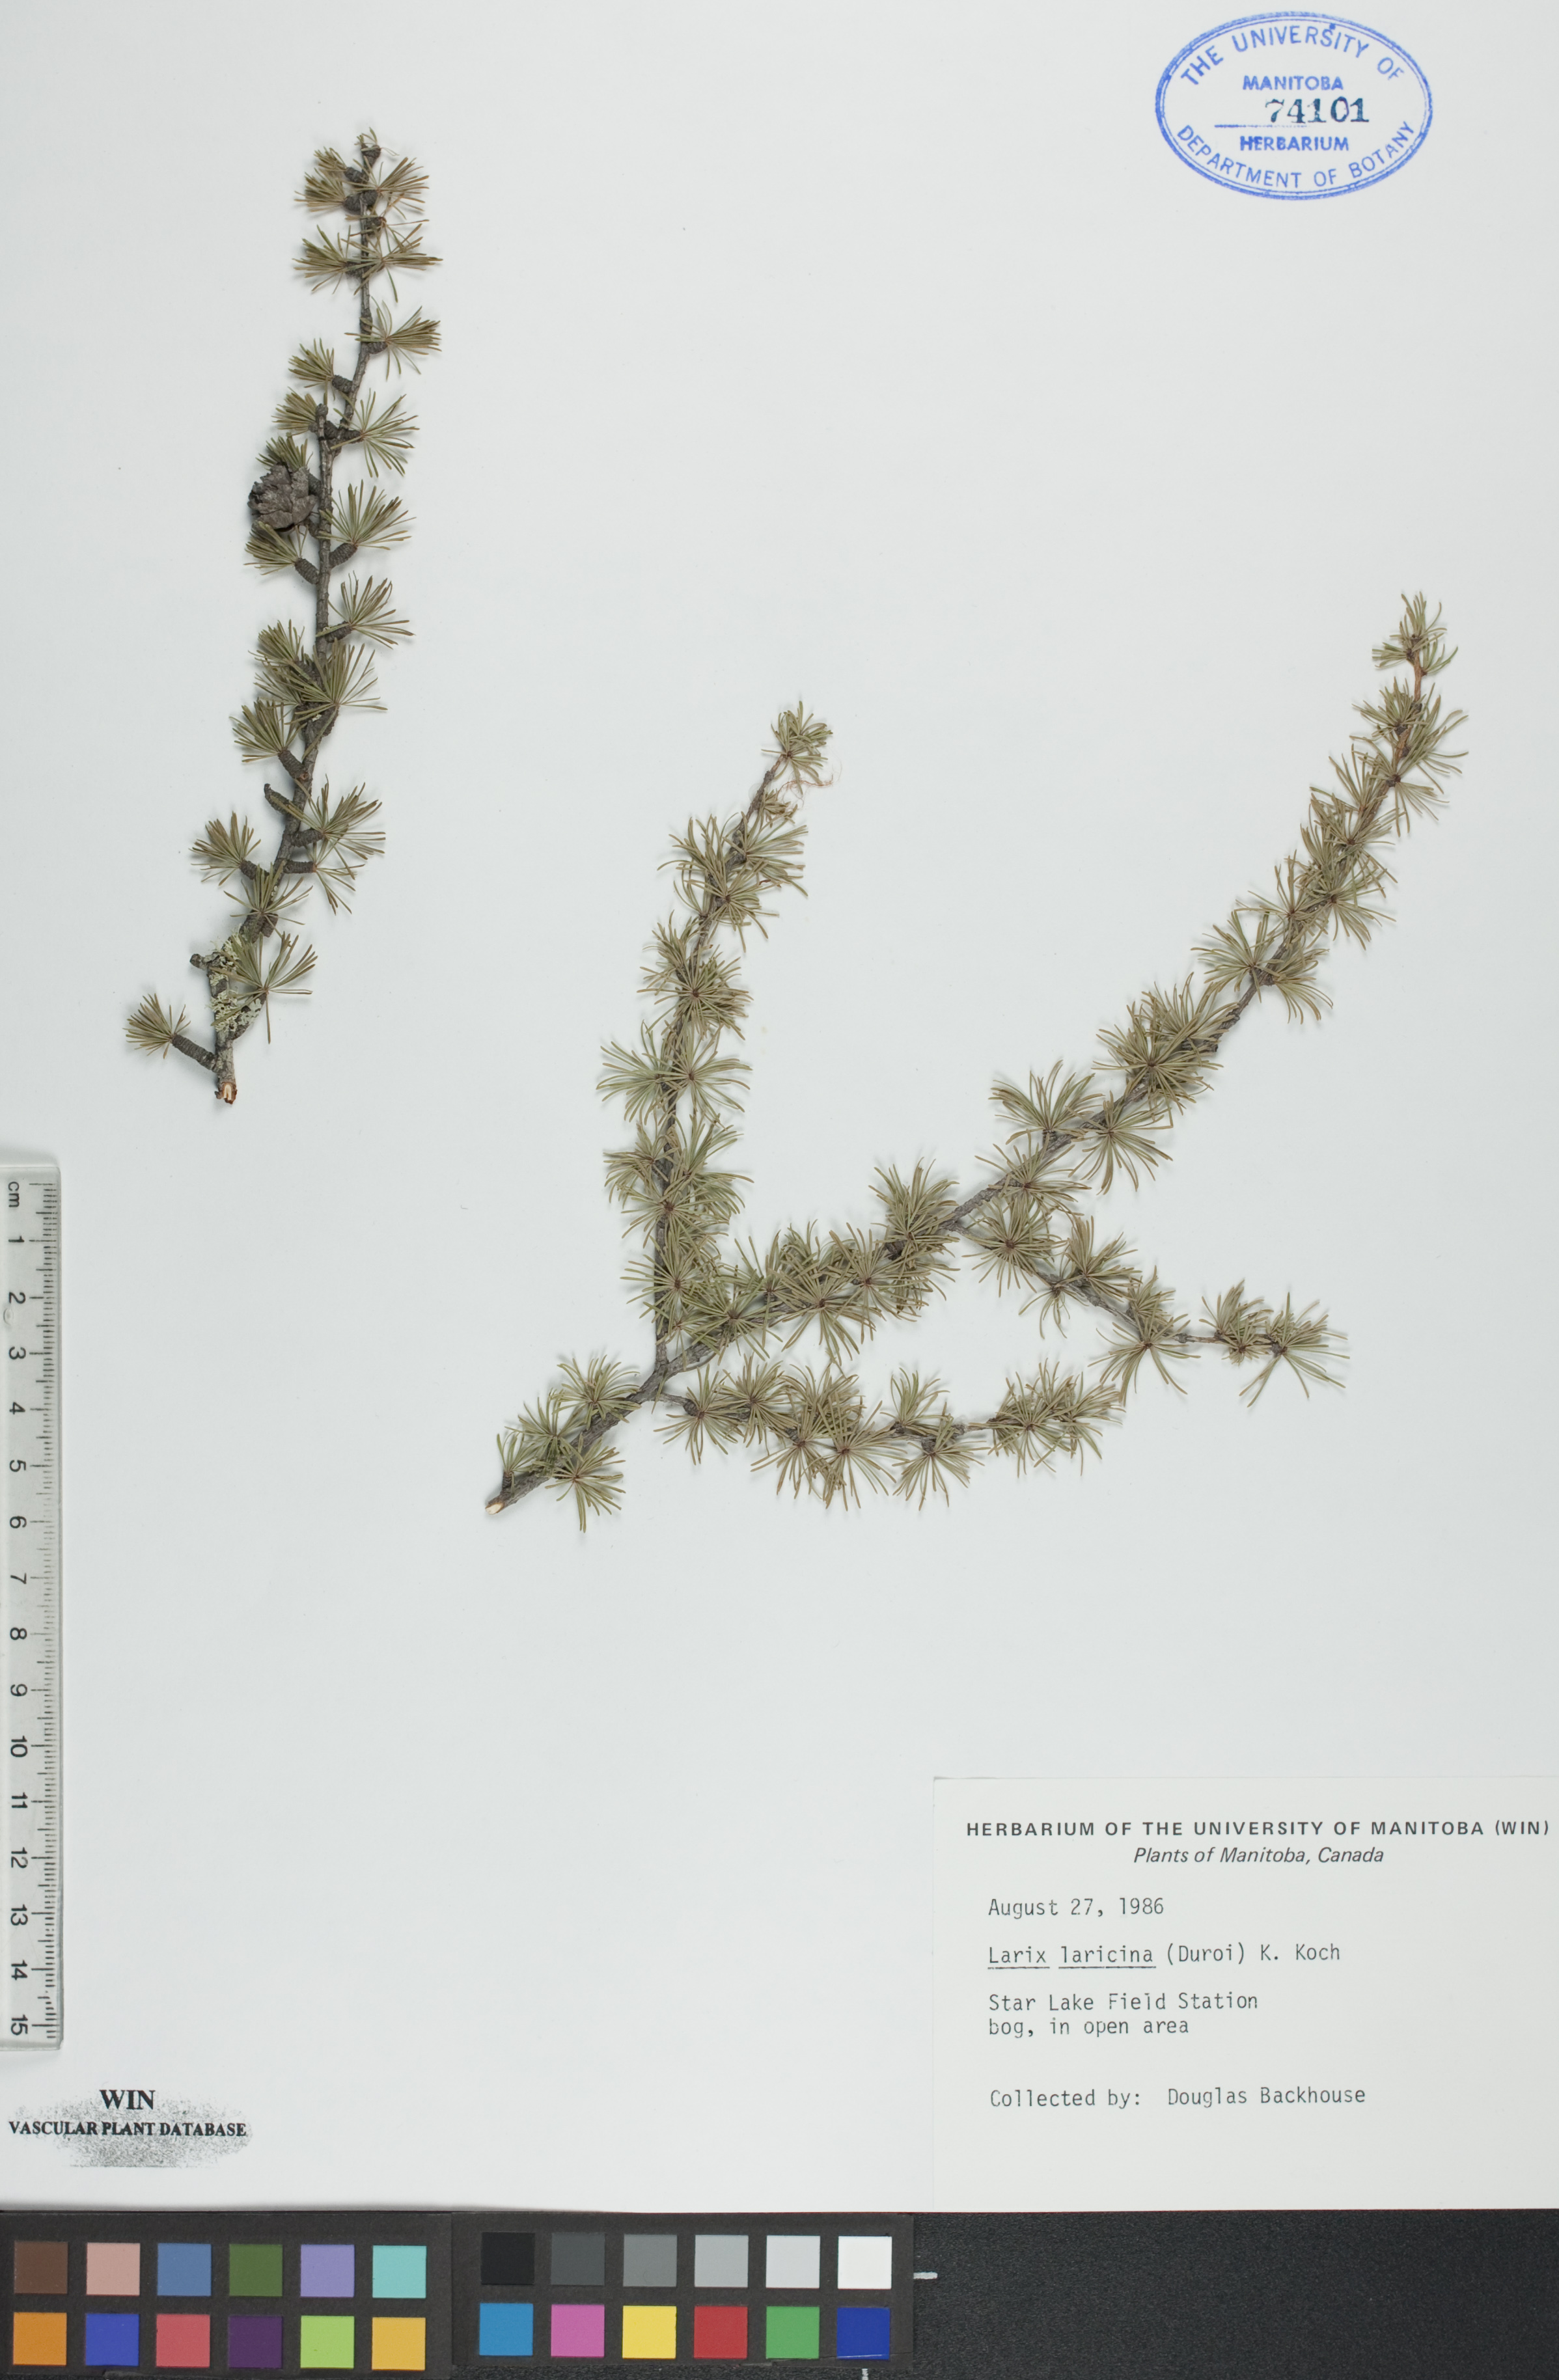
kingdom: Plantae
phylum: Tracheophyta
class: Pinopsida
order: Pinales
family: Pinaceae
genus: Larix
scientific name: Larix laricina
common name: American larch
